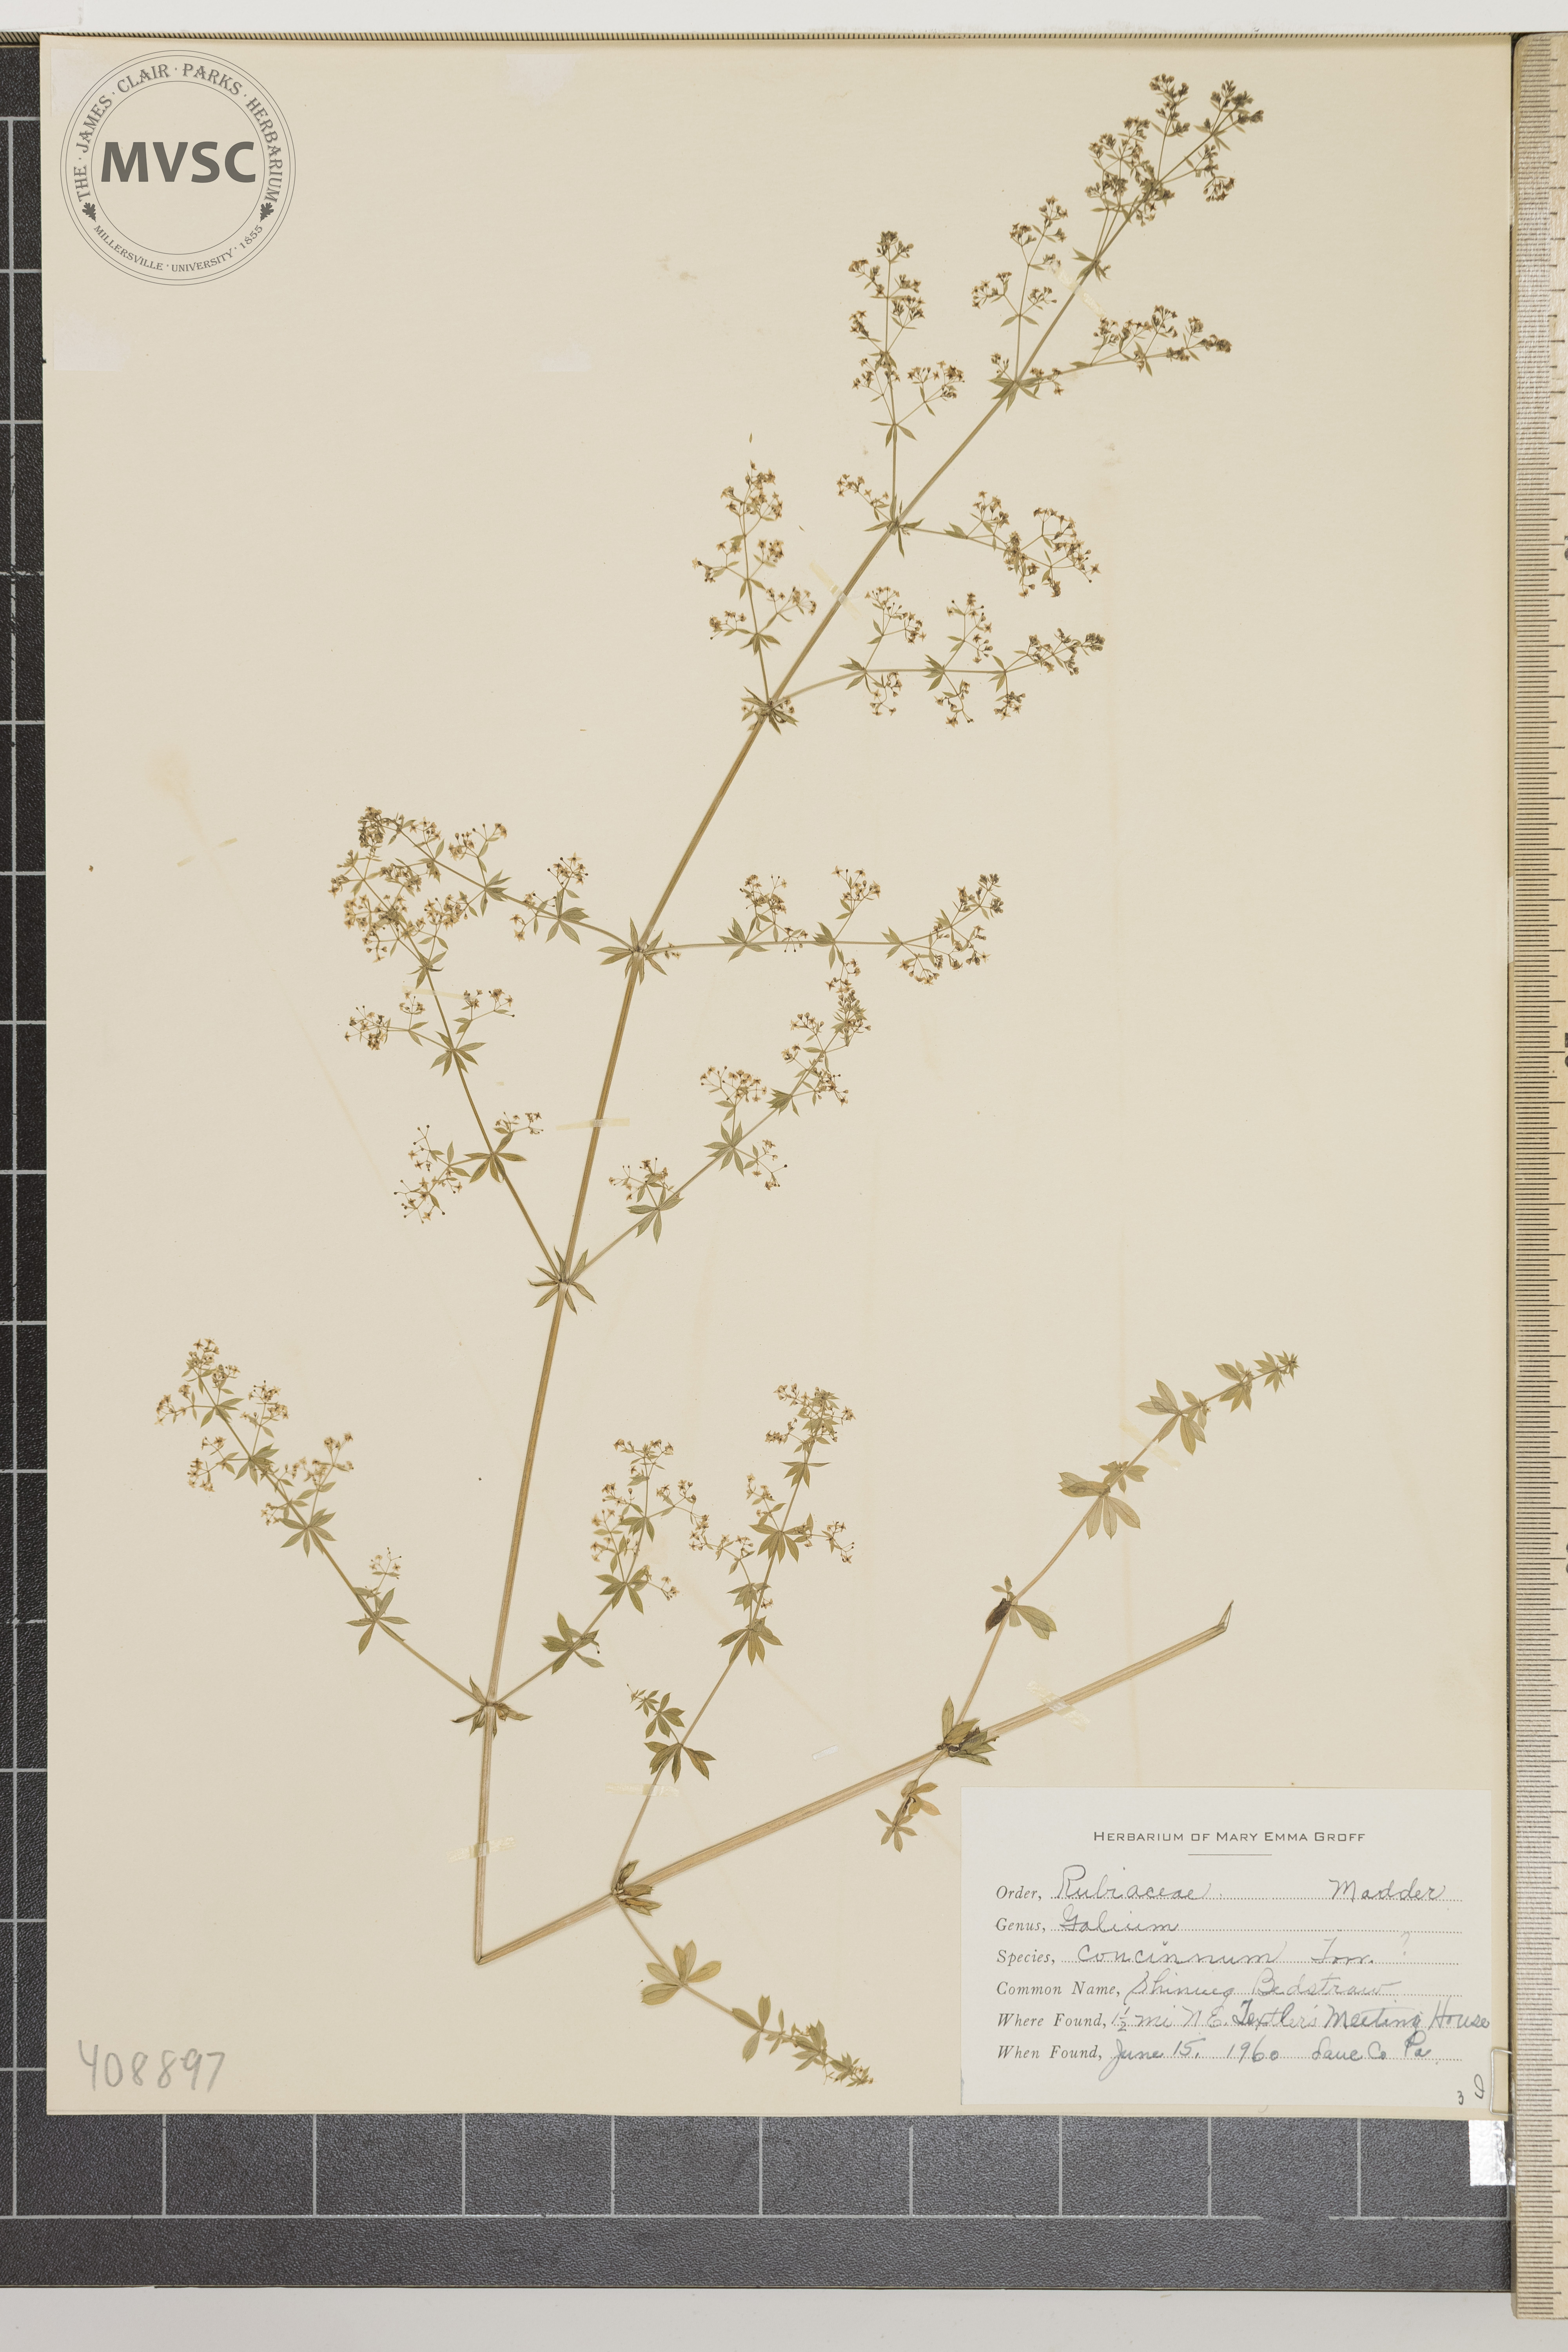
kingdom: Plantae
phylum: Tracheophyta
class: Magnoliopsida
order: Gentianales
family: Rubiaceae
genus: Galium
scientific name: Galium concinnum
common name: Shining Bedstraw
